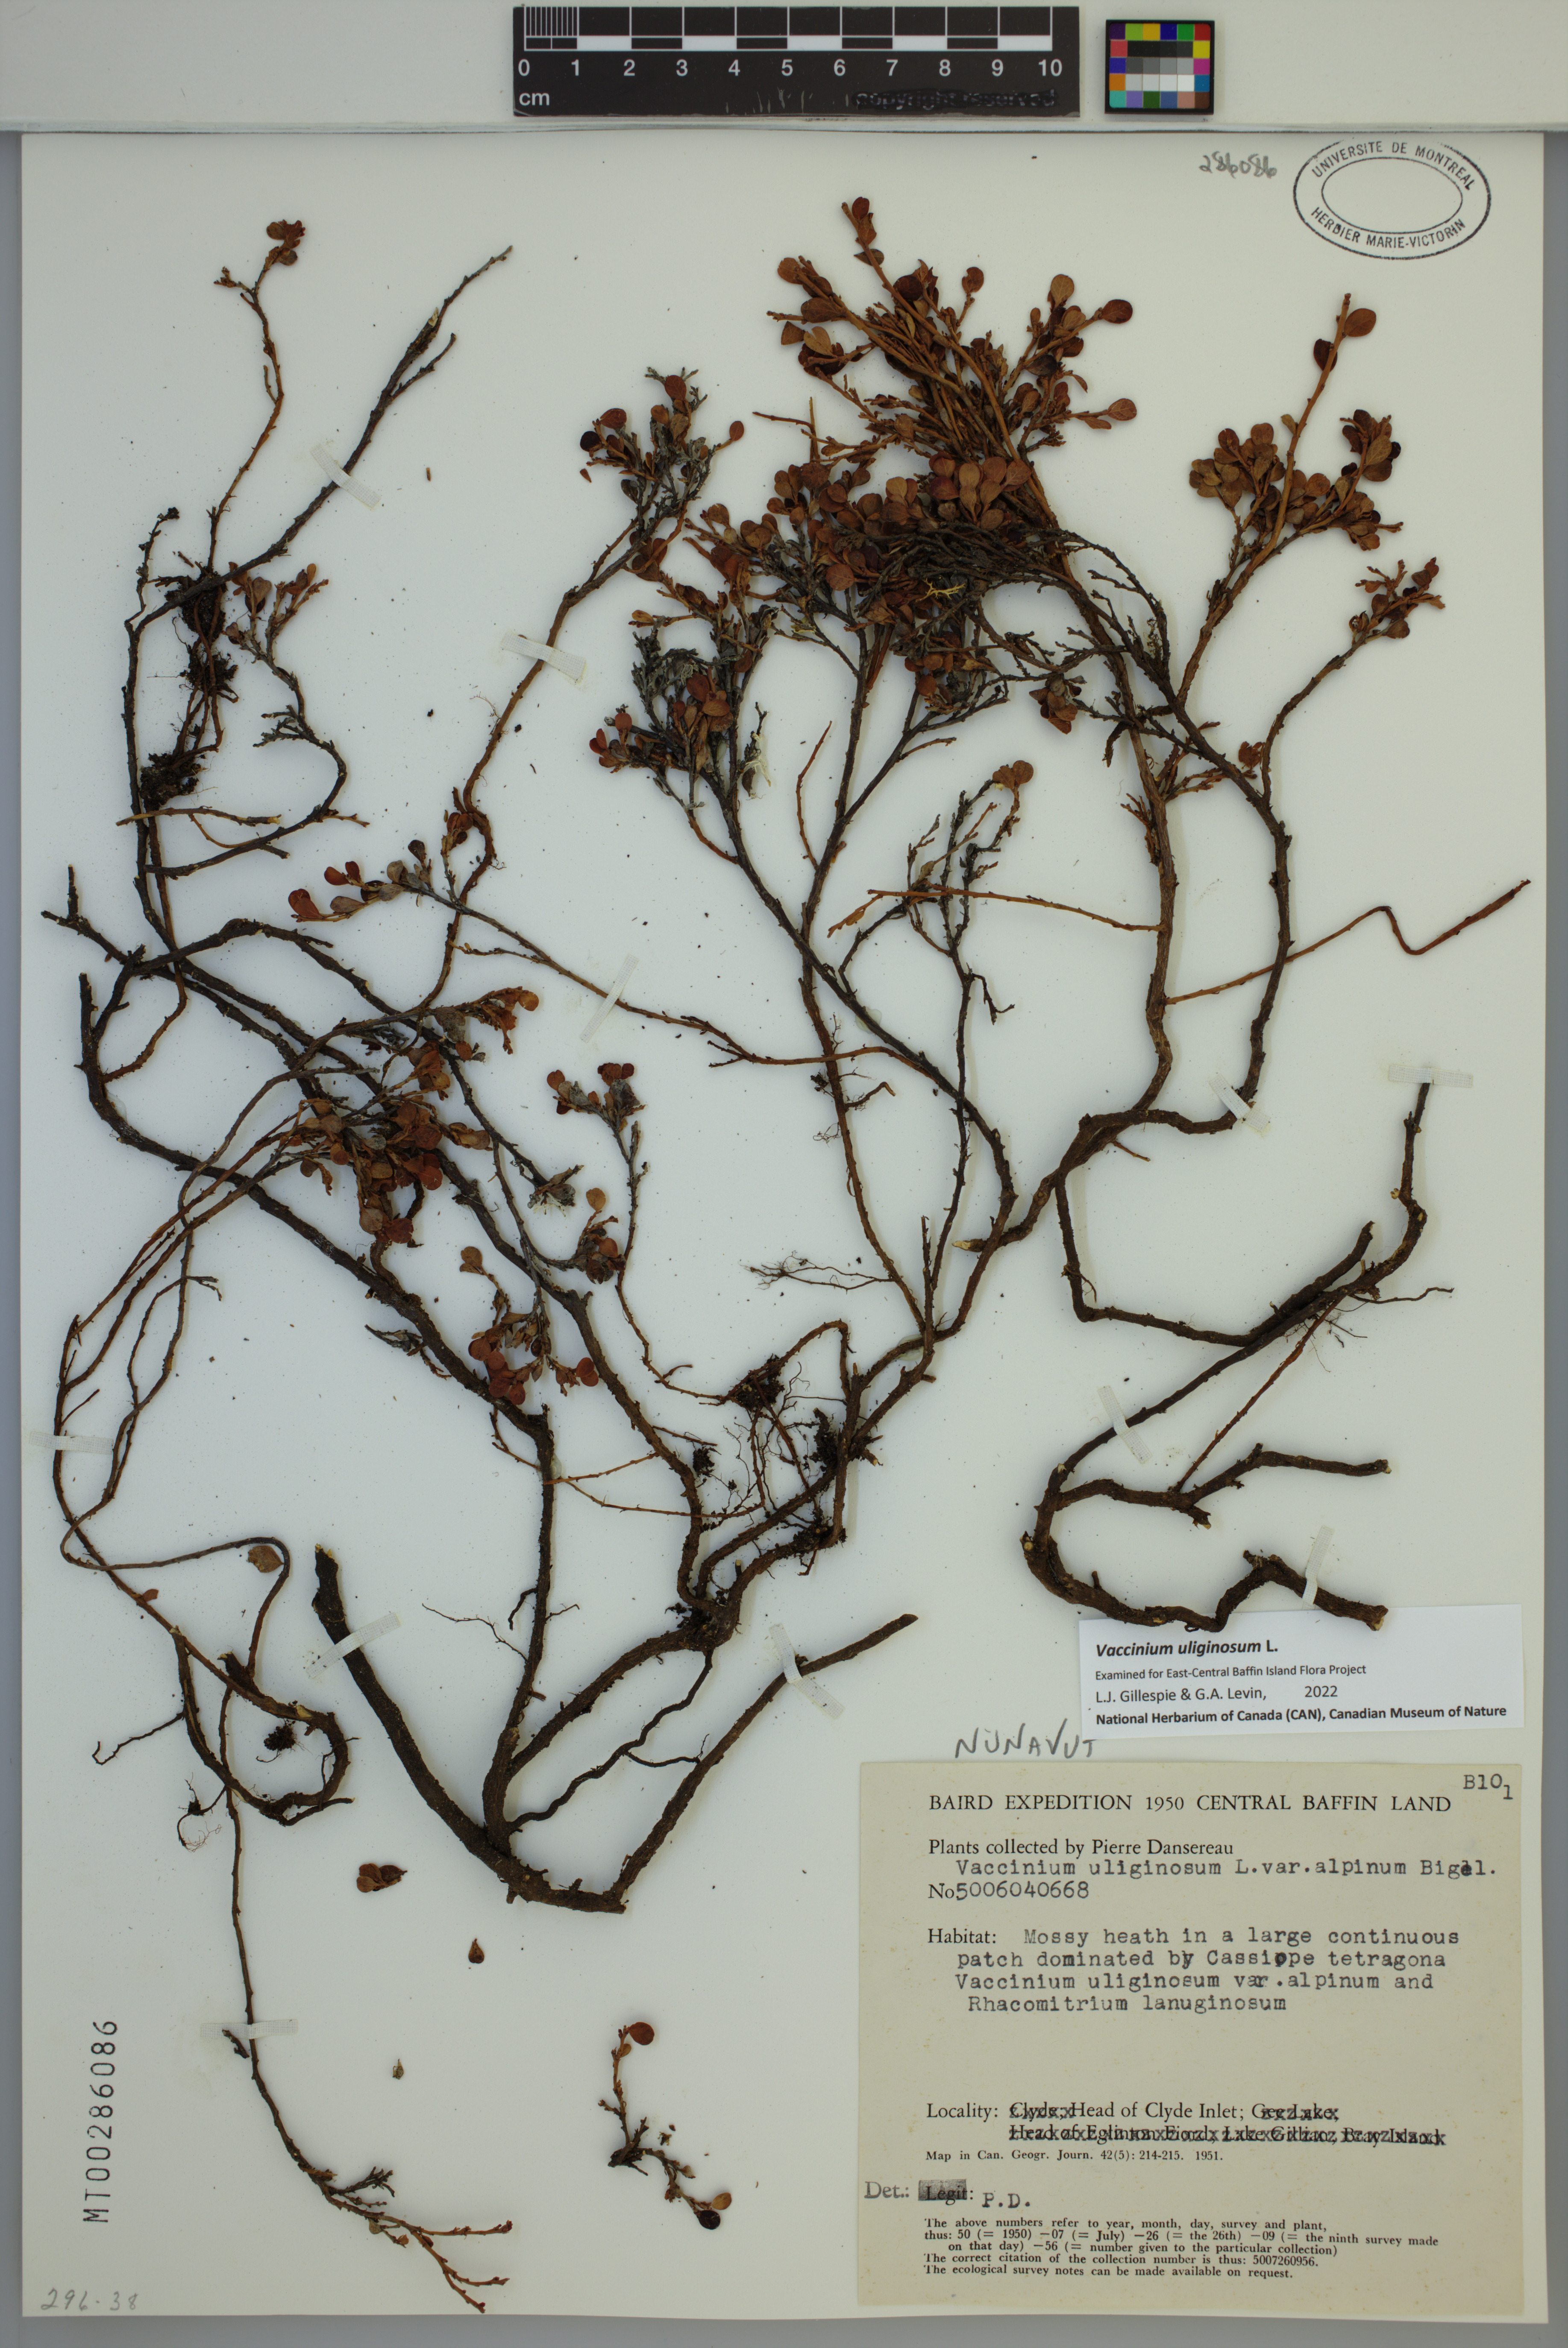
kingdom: Plantae
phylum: Tracheophyta
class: Magnoliopsida
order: Ericales
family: Ericaceae
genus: Vaccinium
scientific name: Vaccinium uliginosum
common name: Bog bilberry
